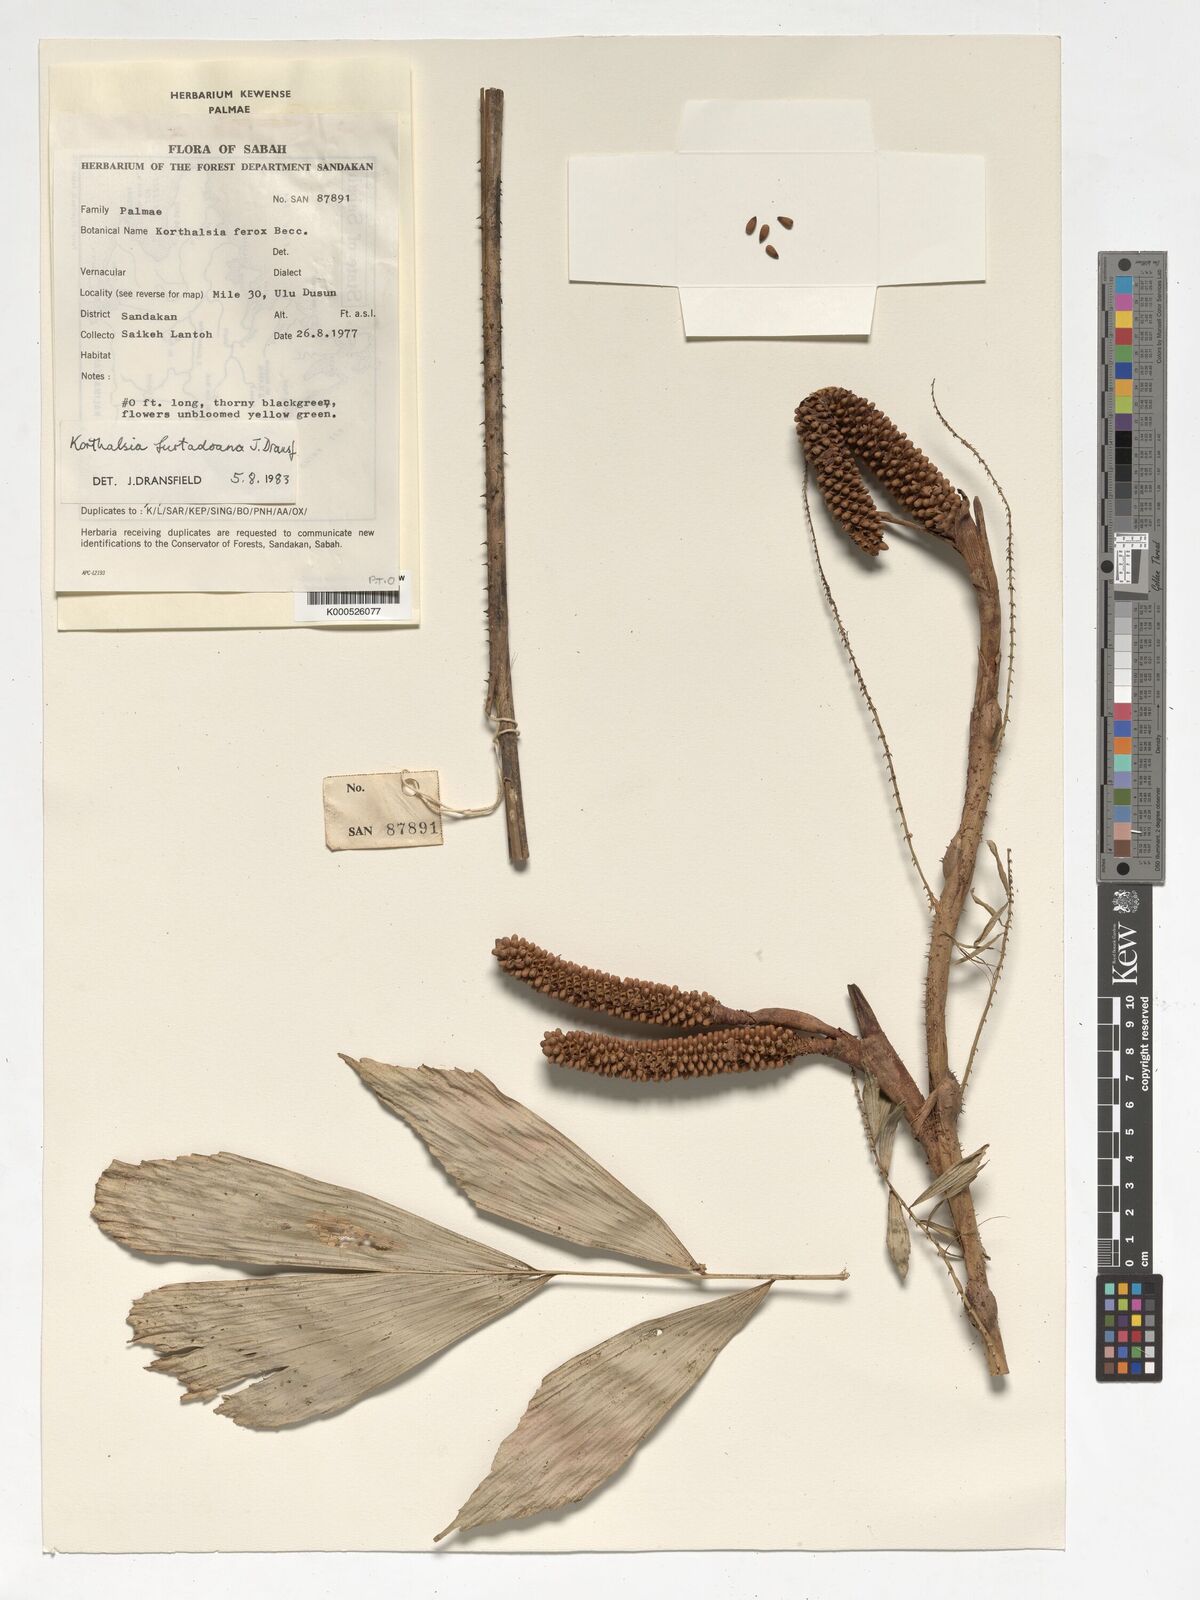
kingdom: Plantae
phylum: Tracheophyta
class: Liliopsida
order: Arecales
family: Arecaceae
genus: Korthalsia
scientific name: Korthalsia ferox
